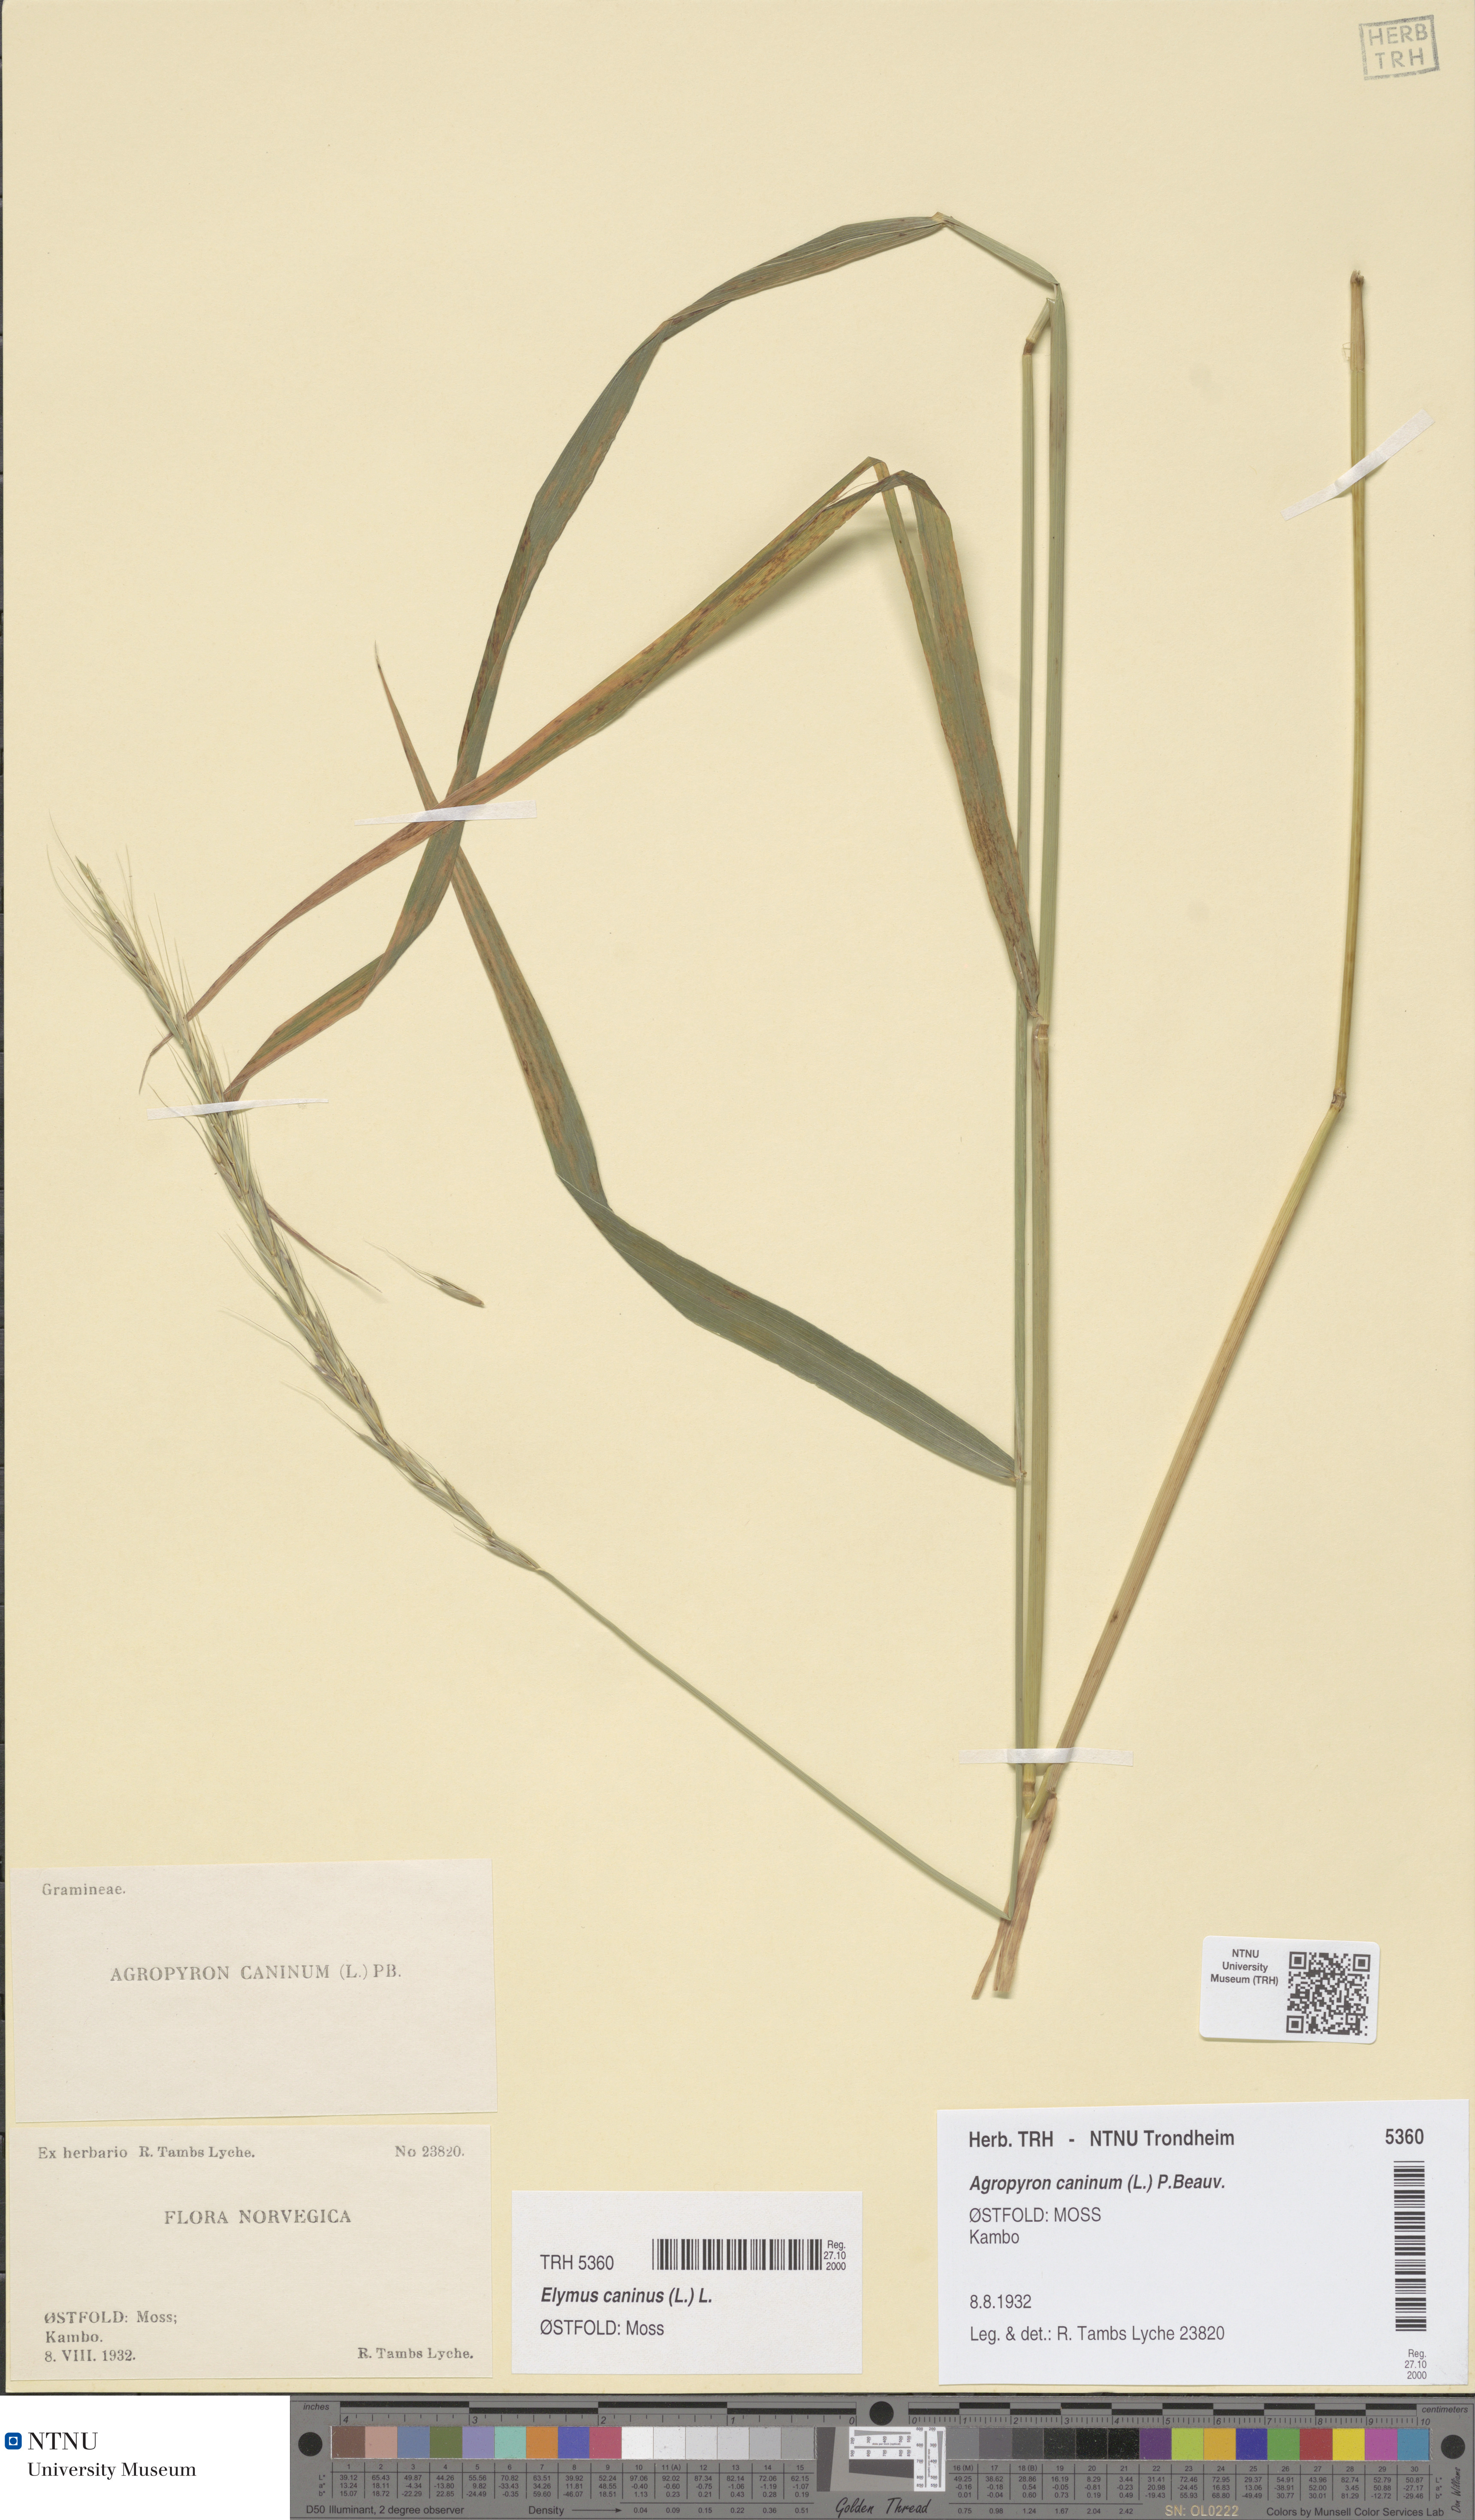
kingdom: Plantae
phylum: Tracheophyta
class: Liliopsida
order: Poales
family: Poaceae
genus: Elymus
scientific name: Elymus caninus
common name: Bearded couch
